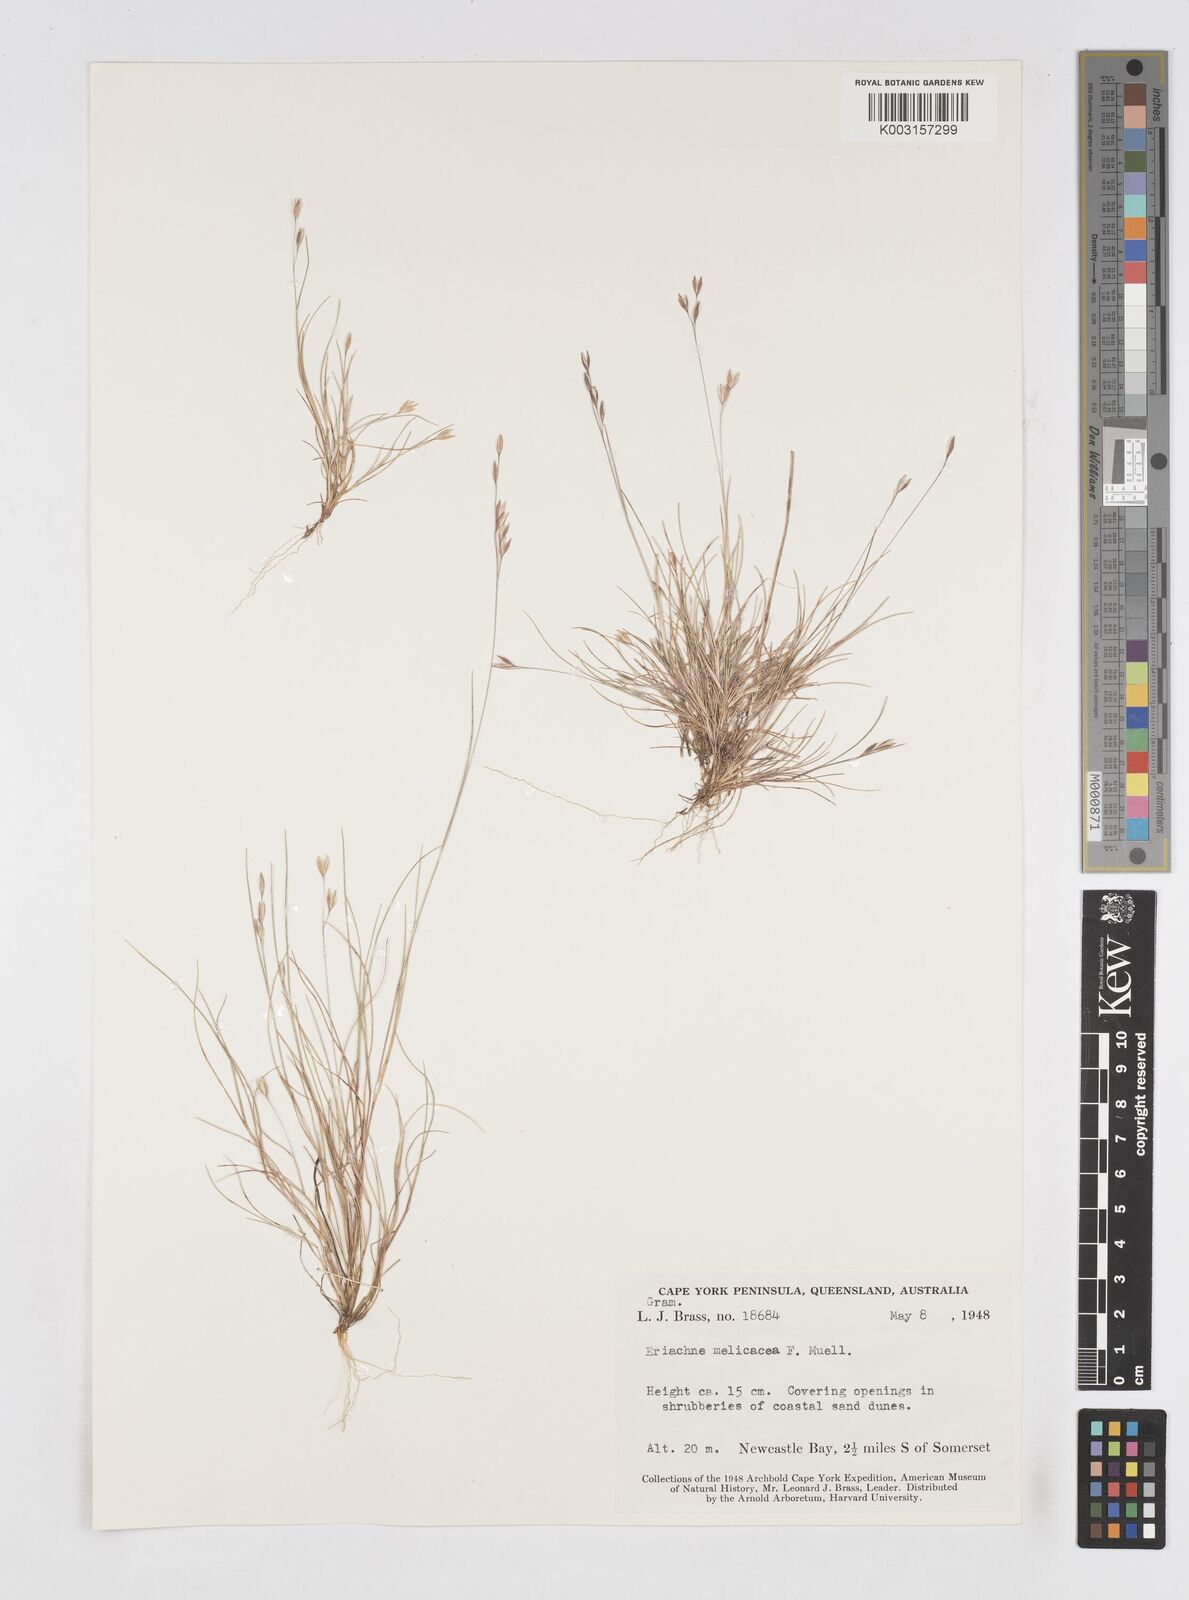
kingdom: Plantae
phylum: Tracheophyta
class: Liliopsida
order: Poales
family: Poaceae
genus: Eriachne
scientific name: Eriachne melicacea
